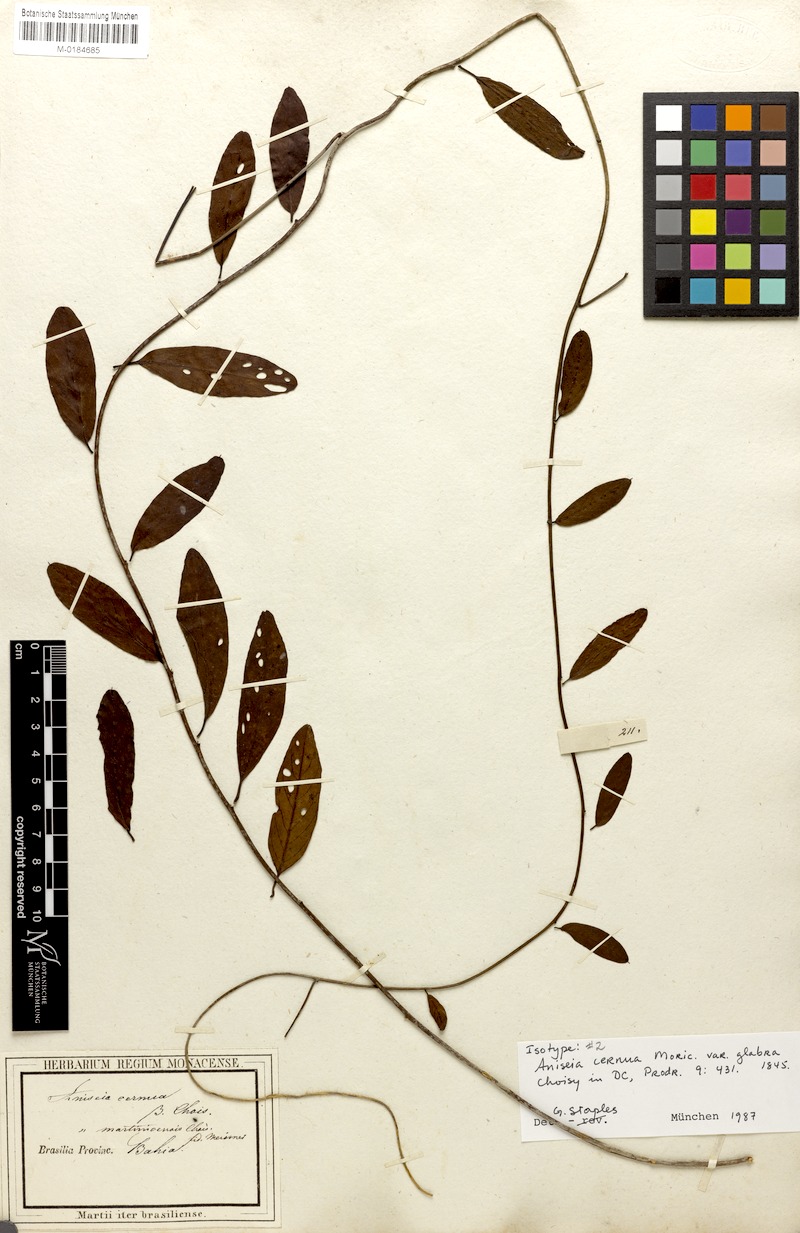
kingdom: Plantae
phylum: Tracheophyta
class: Magnoliopsida
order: Solanales
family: Convolvulaceae
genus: Aniseia
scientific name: Aniseia cernua
